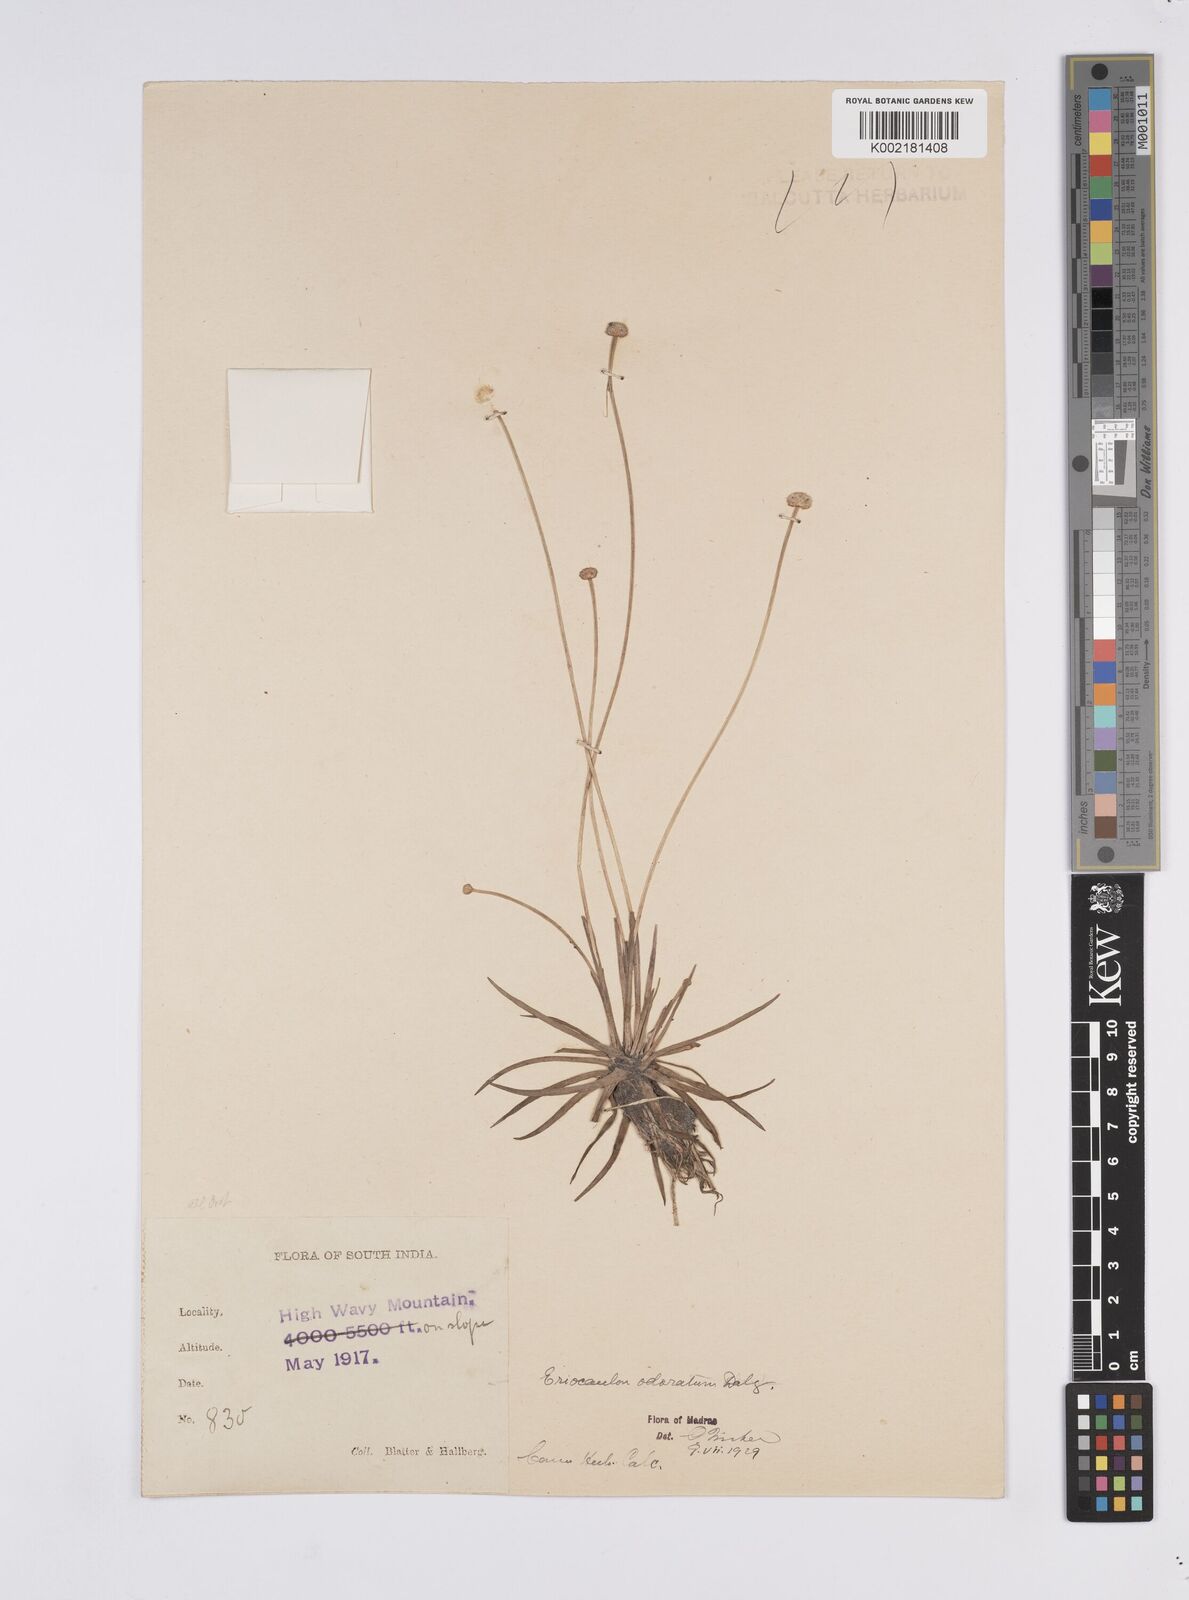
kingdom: Plantae
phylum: Tracheophyta
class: Liliopsida
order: Poales
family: Eriocaulaceae
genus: Eriocaulon
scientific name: Eriocaulon odoratum
